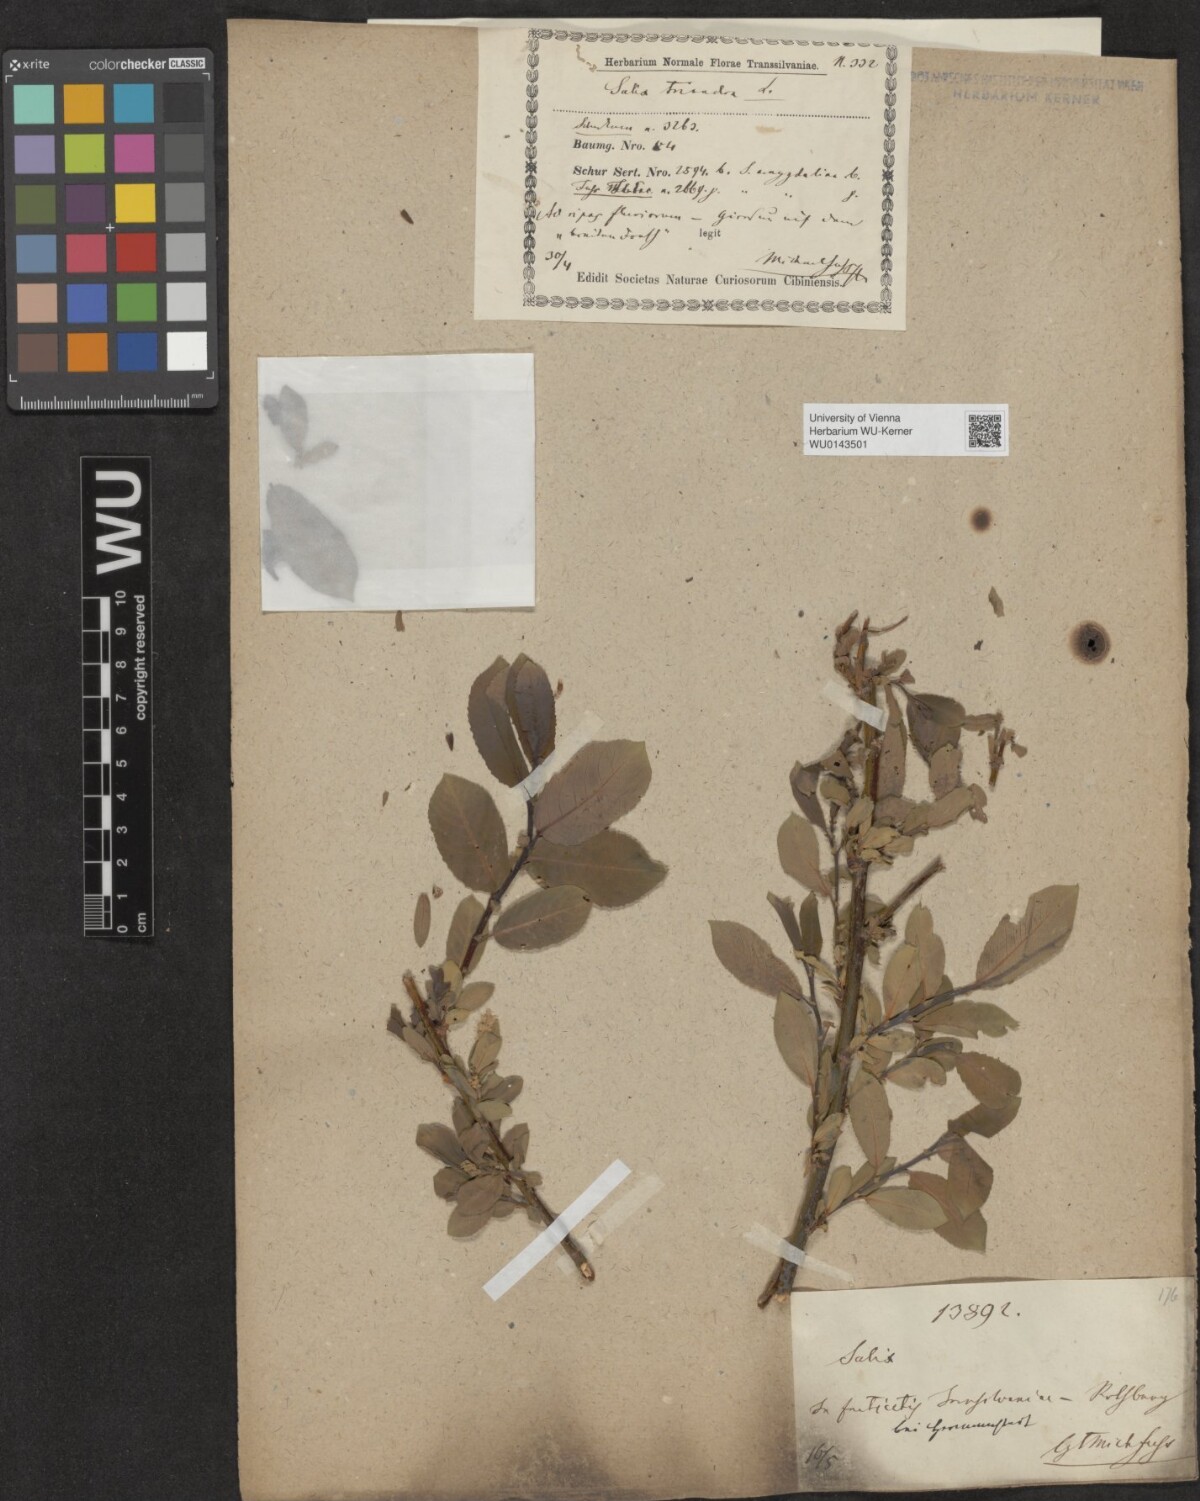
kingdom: Plantae
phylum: Tracheophyta
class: Magnoliopsida
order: Malpighiales
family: Salicaceae
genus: Salix
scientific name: Salix triandra
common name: Almond willow
